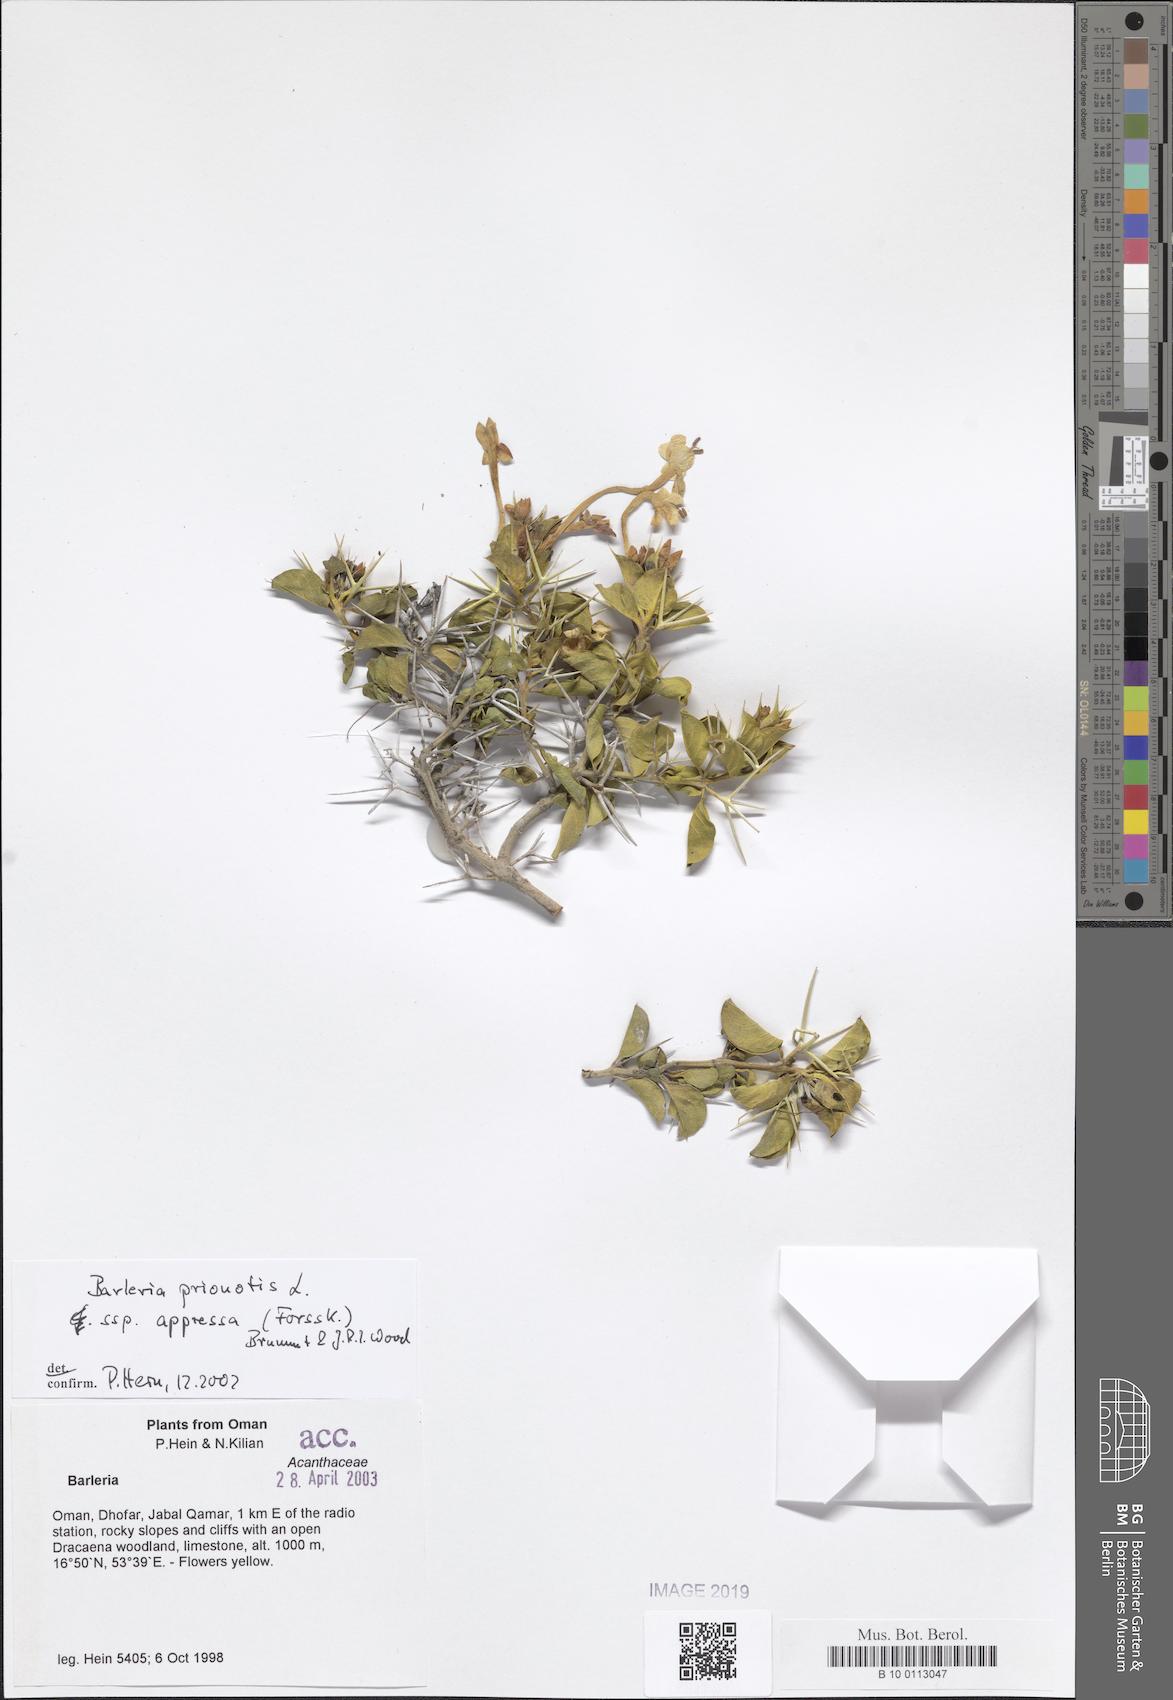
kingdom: Plantae
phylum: Tracheophyta
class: Magnoliopsida
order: Lamiales
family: Acanthaceae
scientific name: Acanthaceae
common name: Acanthaceae
